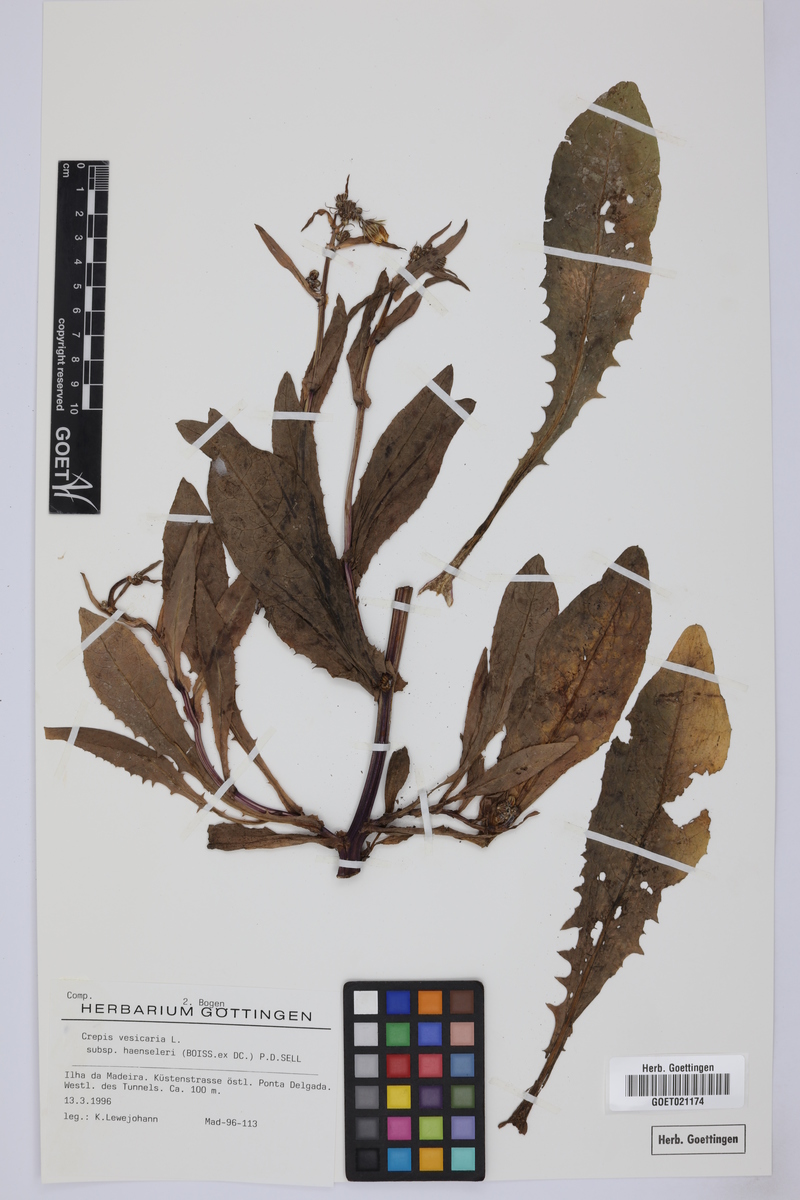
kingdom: Plantae
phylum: Tracheophyta
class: Magnoliopsida
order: Asterales
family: Asteraceae
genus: Crepis
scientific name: Crepis vesicaria
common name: Beaked hawksbeard
